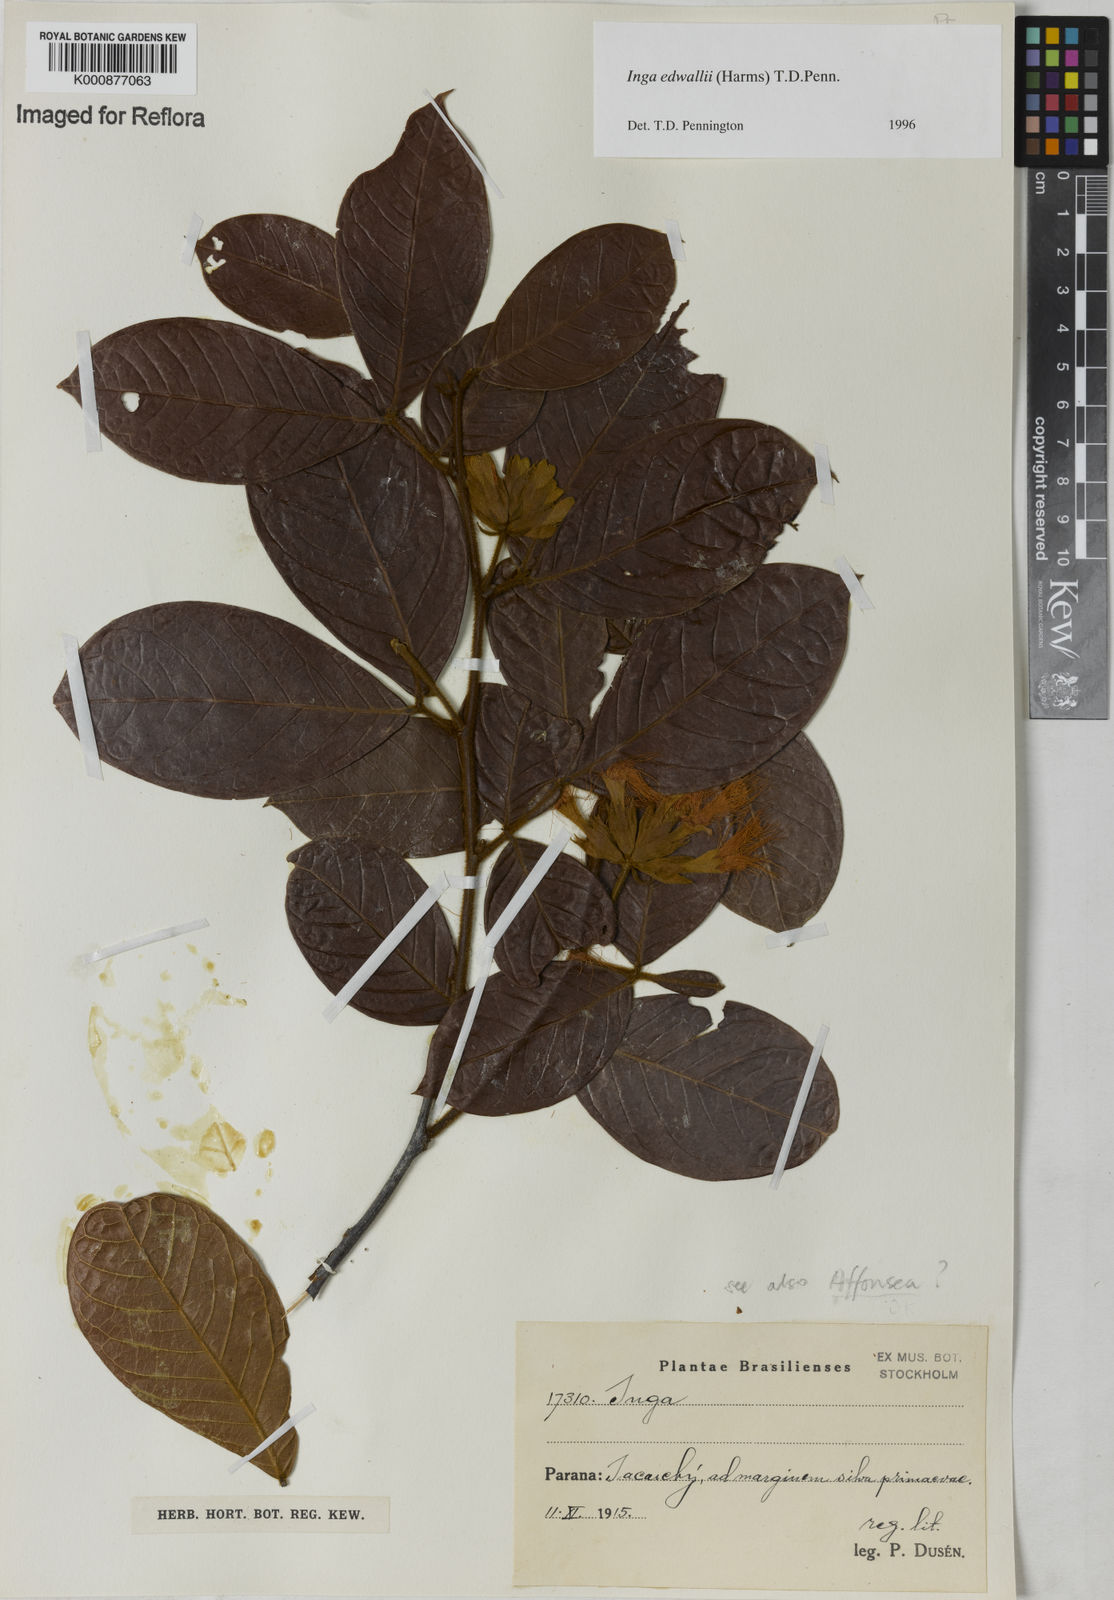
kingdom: Plantae
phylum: Tracheophyta
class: Magnoliopsida
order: Fabales
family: Fabaceae
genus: Inga
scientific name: Inga edwallii
